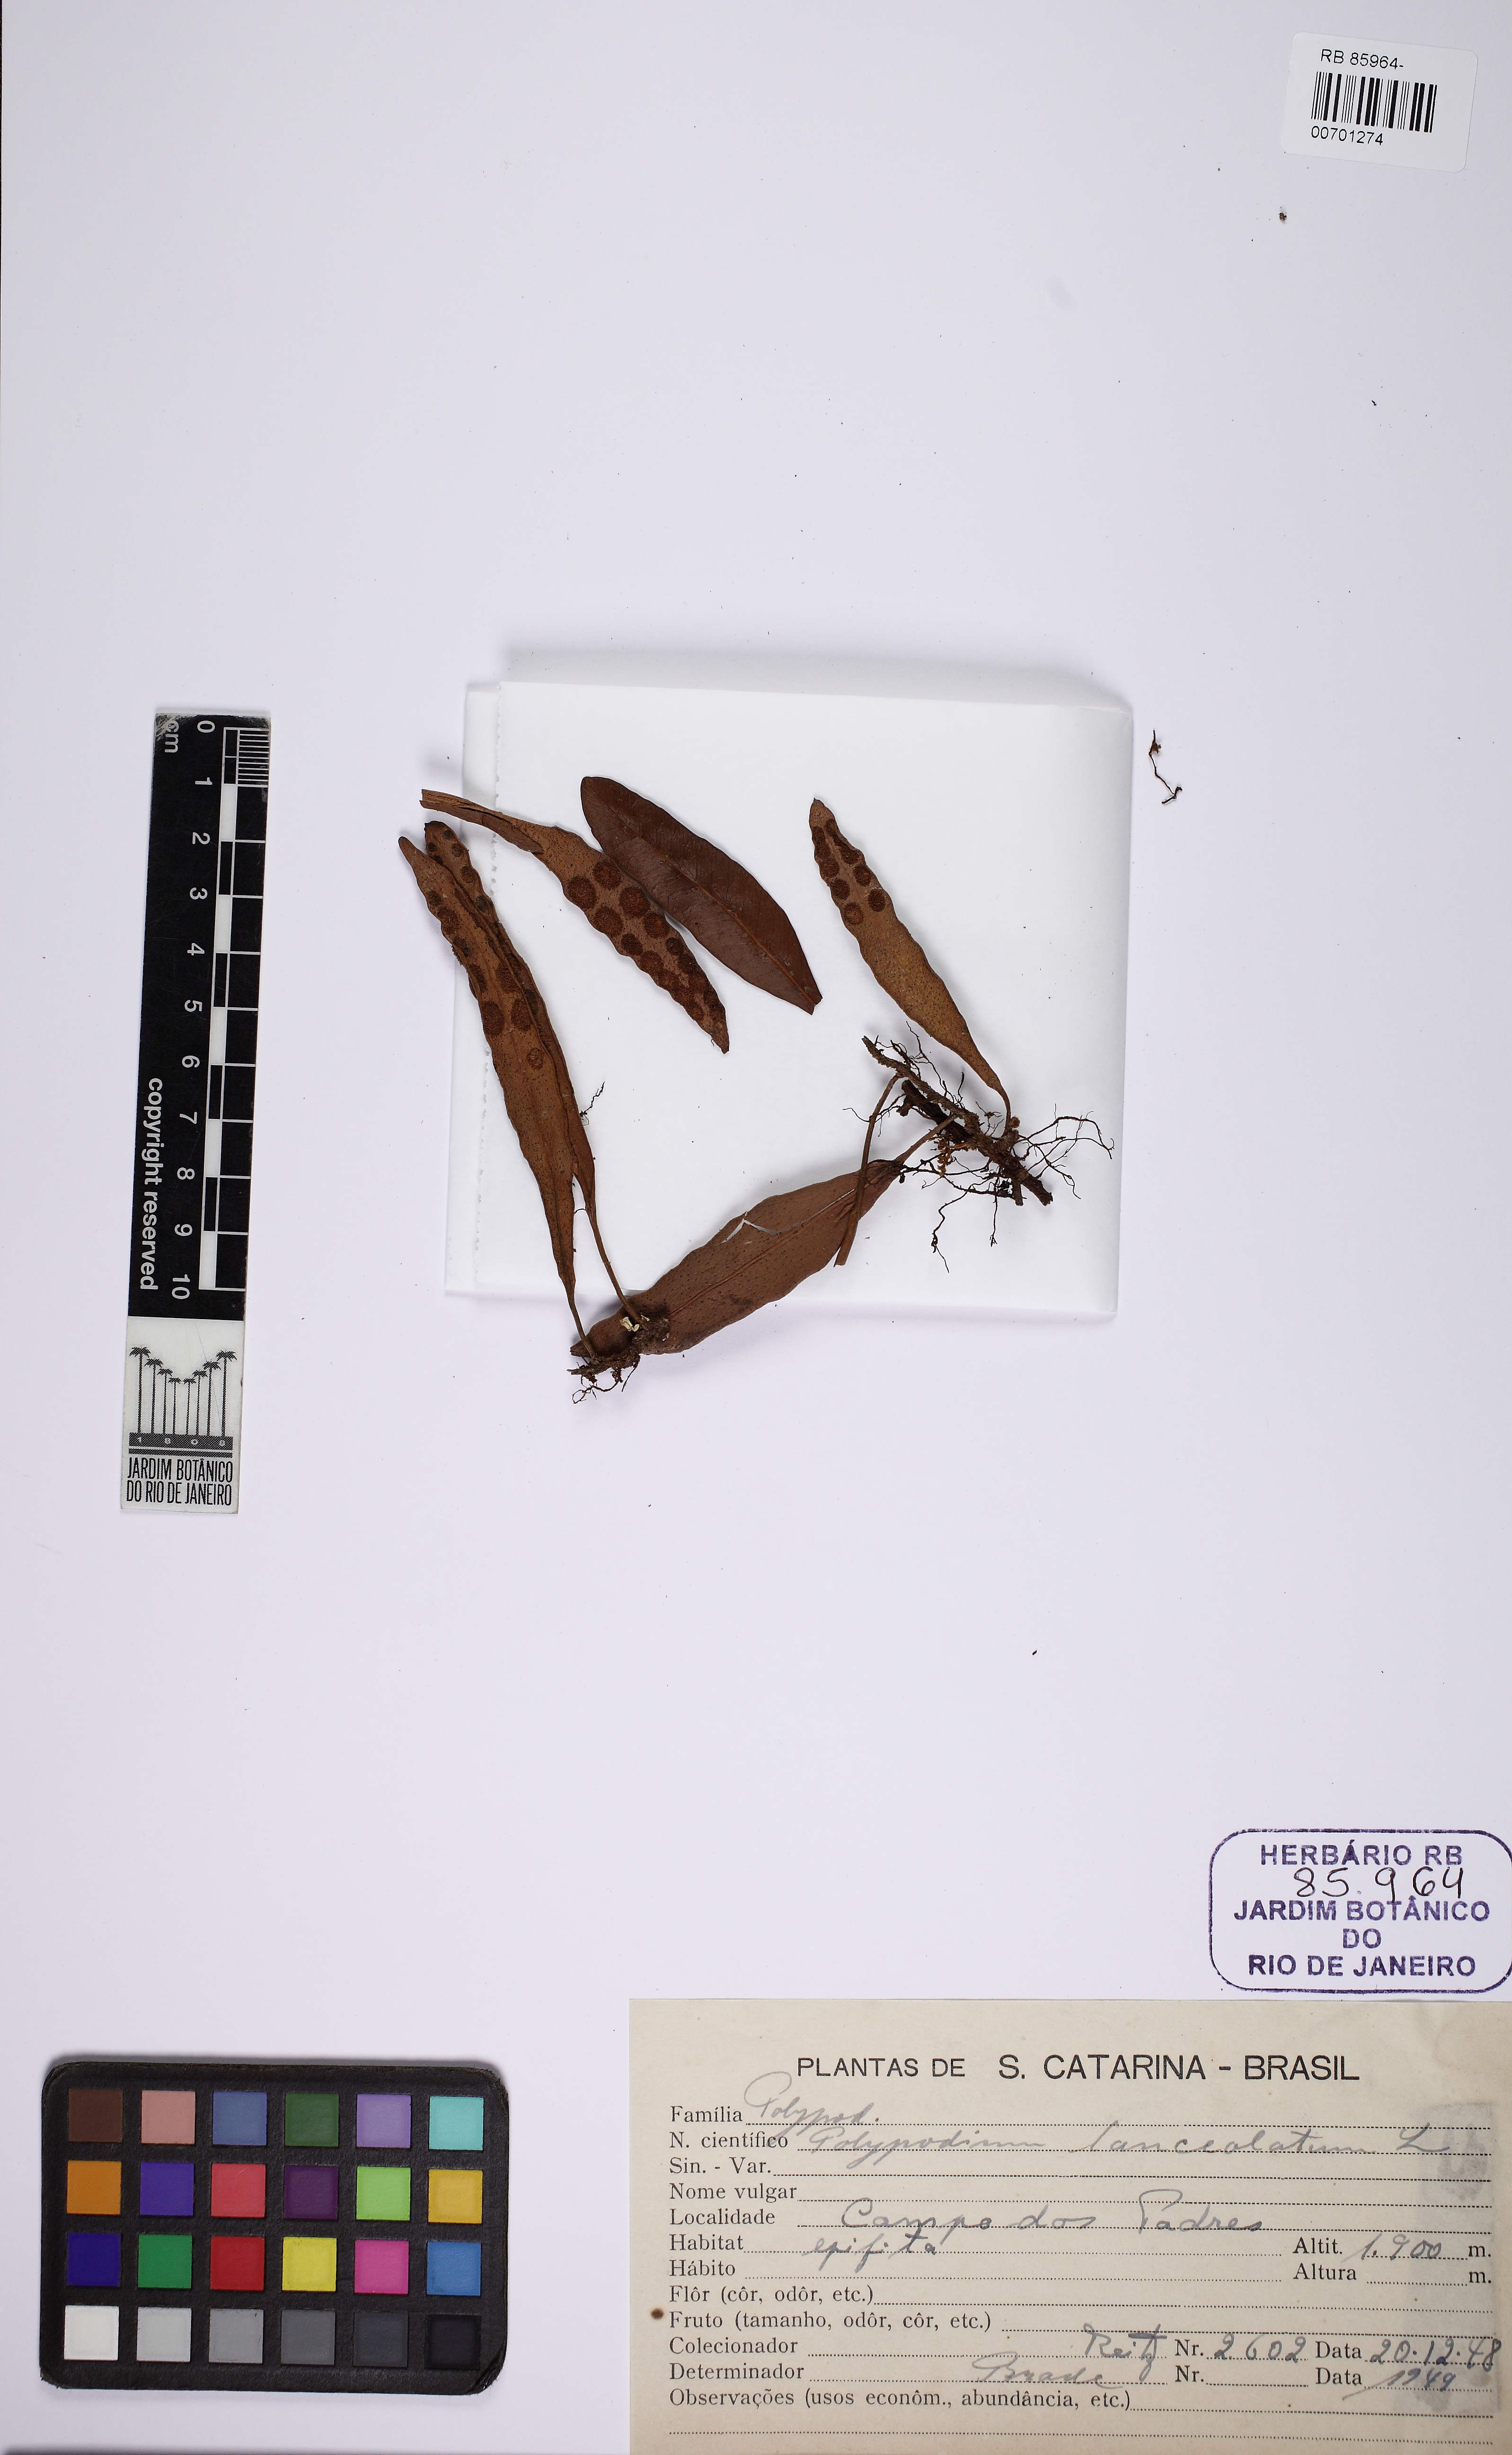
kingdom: Plantae
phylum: Tracheophyta
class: Polypodiopsida
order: Polypodiales
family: Polypodiaceae
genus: Pleopeltis
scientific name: Pleopeltis macrocarpa
